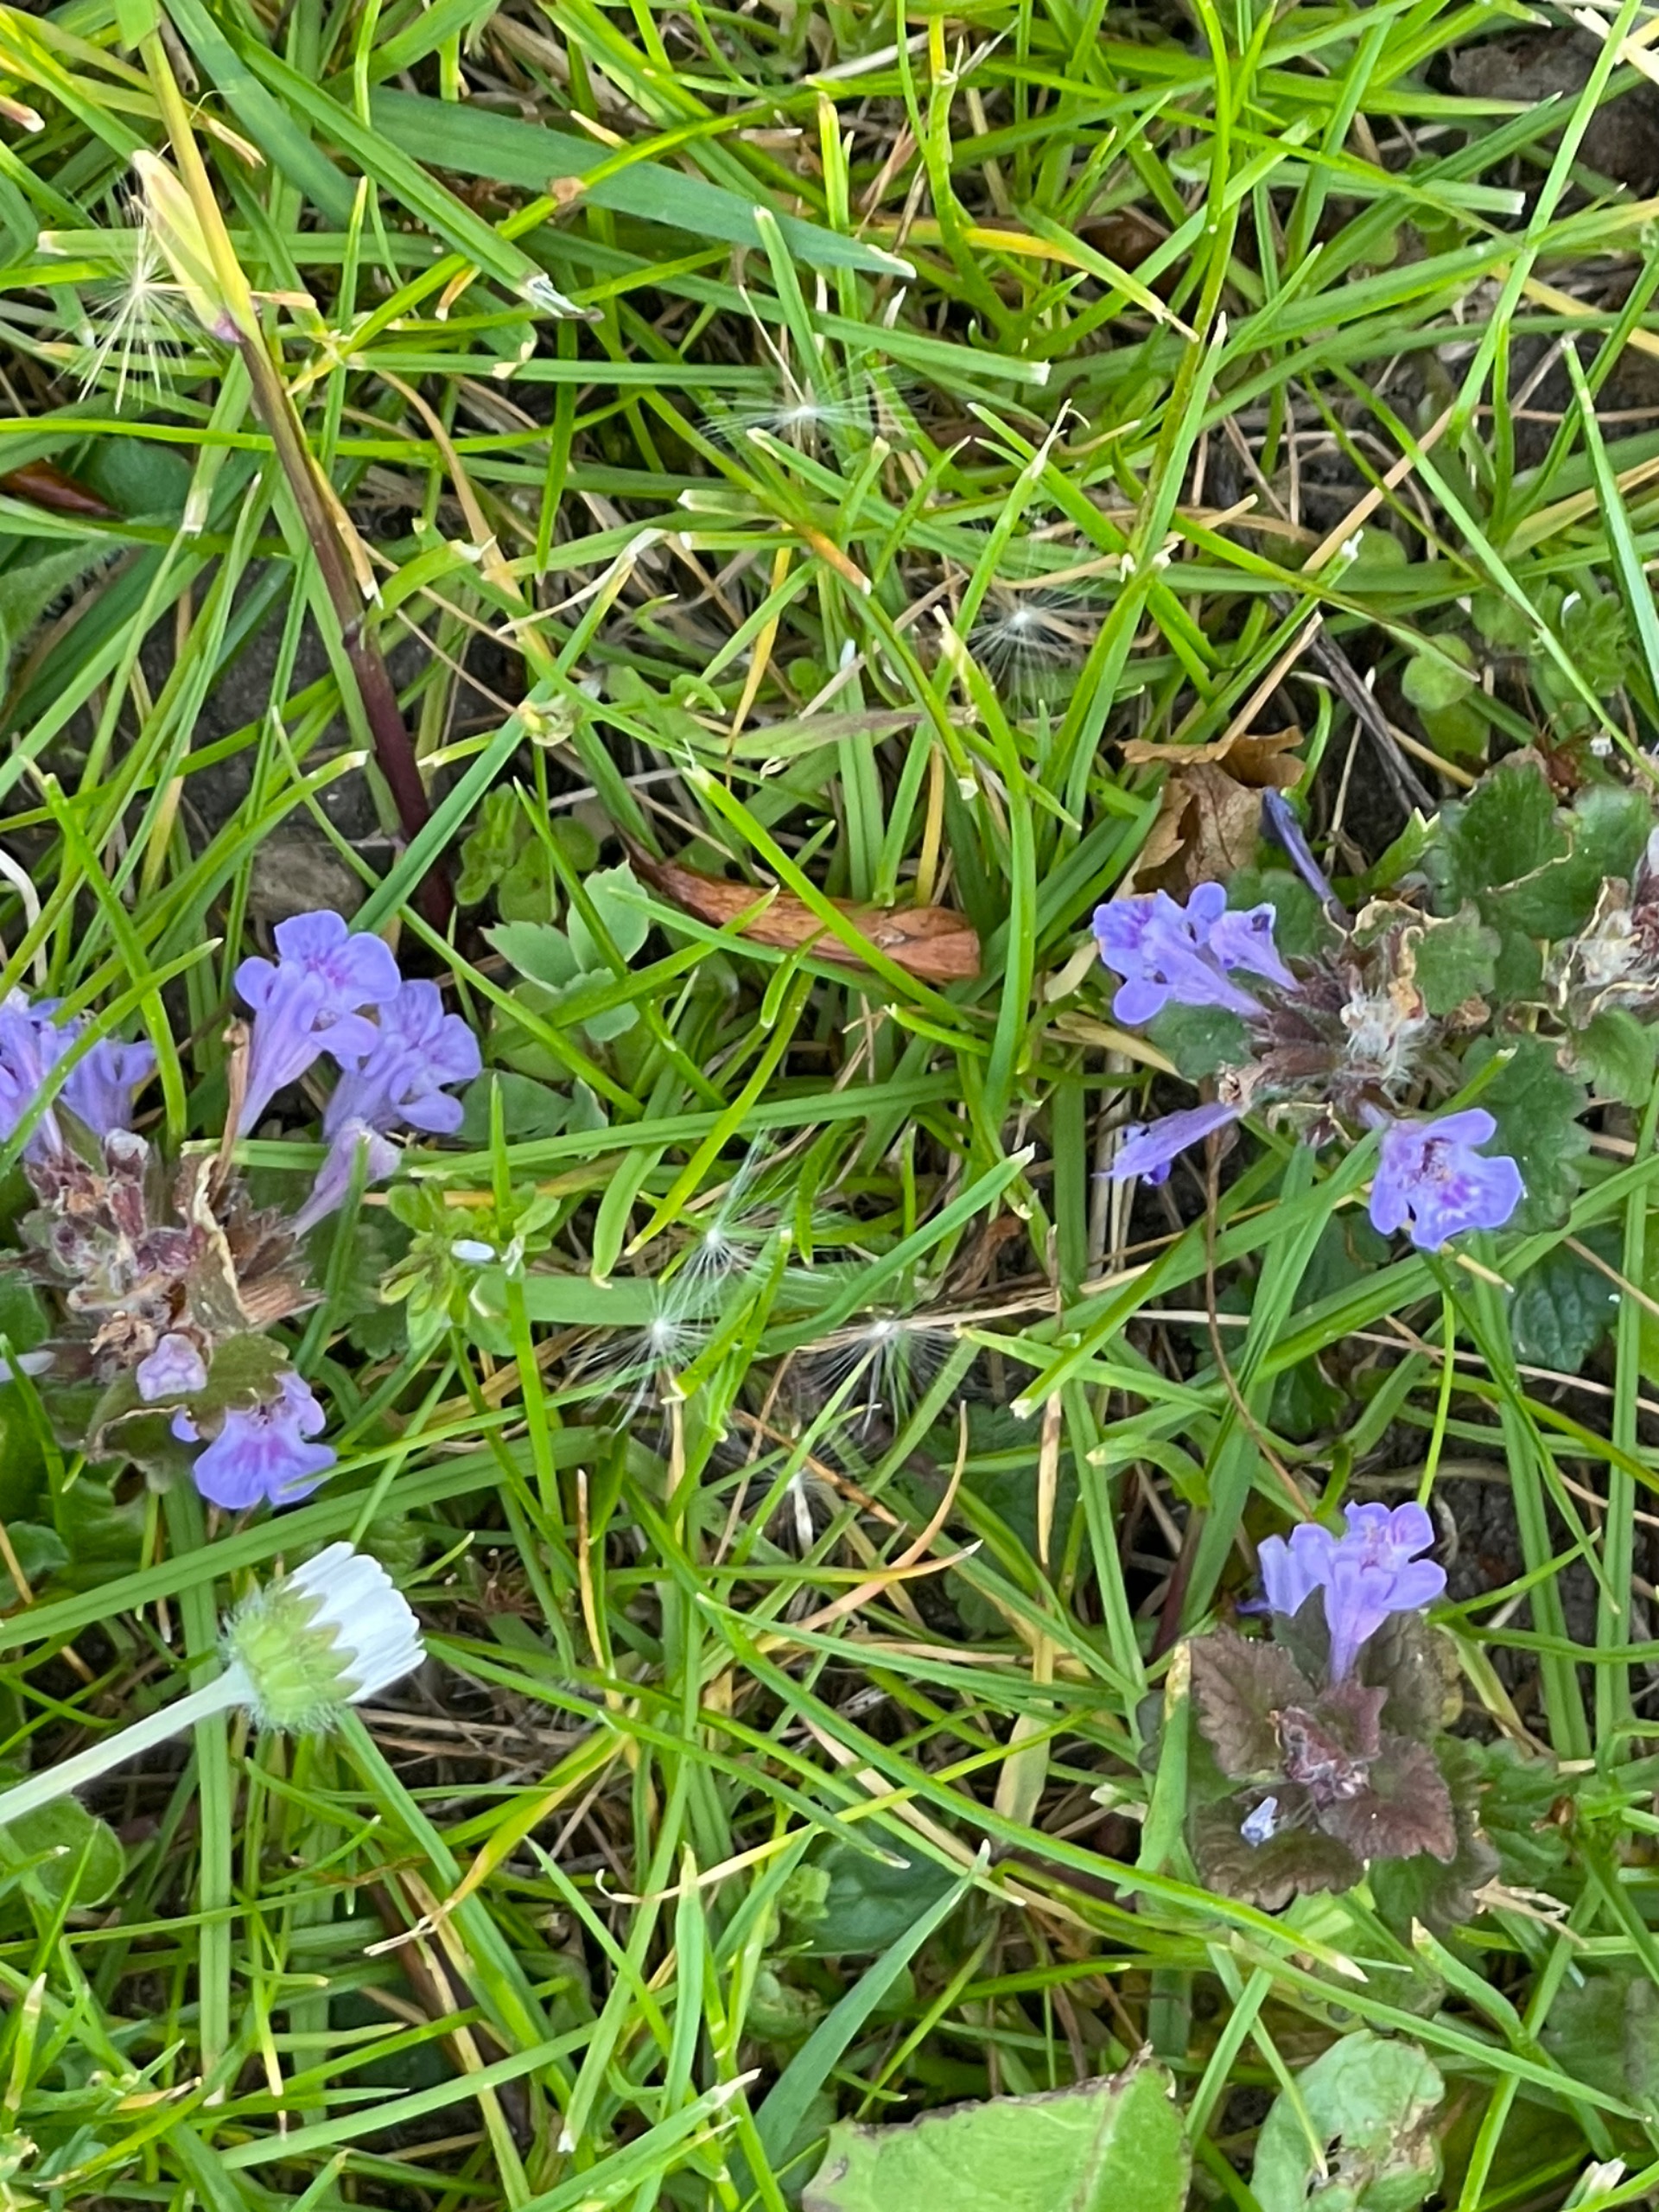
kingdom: Plantae
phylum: Tracheophyta
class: Magnoliopsida
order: Lamiales
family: Lamiaceae
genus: Glechoma
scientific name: Glechoma hederacea
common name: Korsknap
